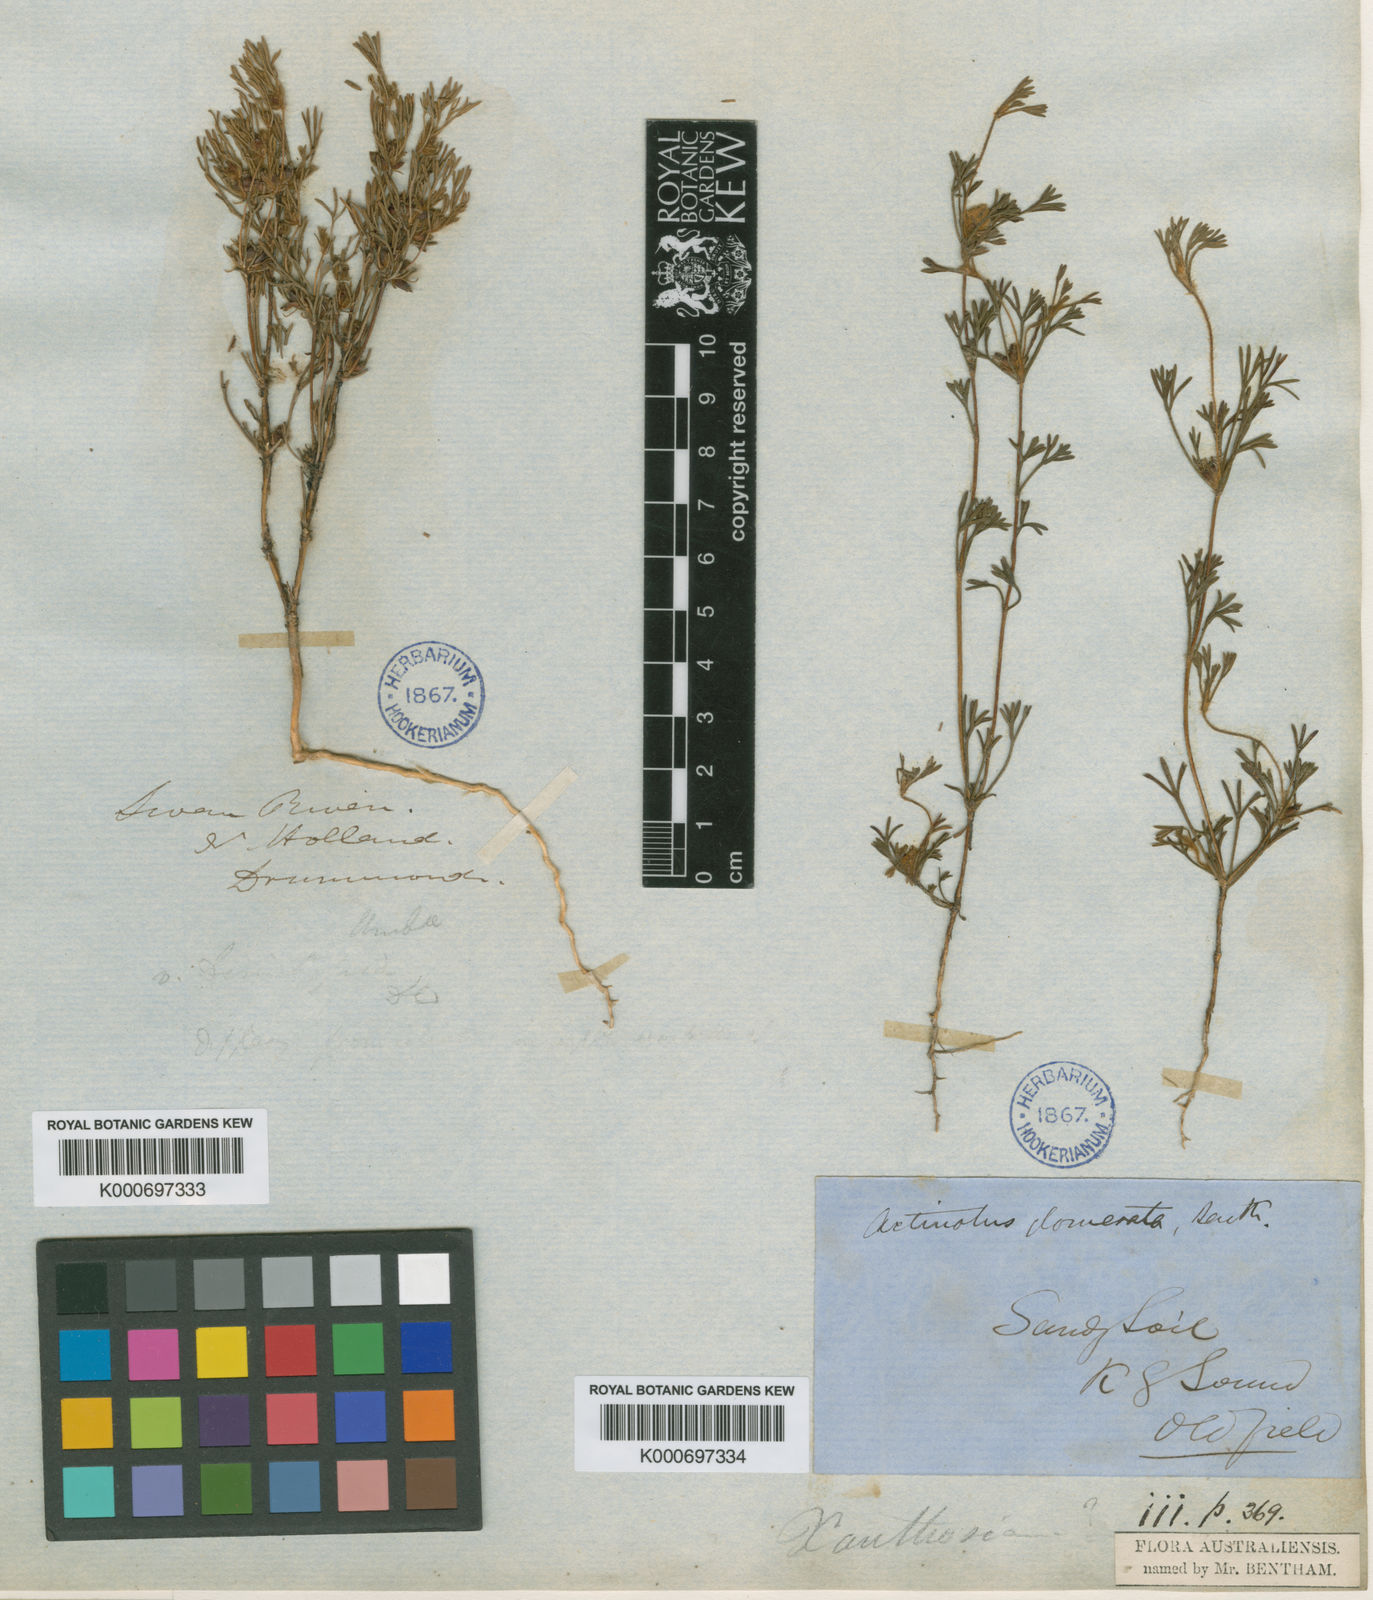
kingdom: Plantae
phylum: Tracheophyta
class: Magnoliopsida
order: Apiales
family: Apiaceae
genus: Actinotus
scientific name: Actinotus glomeratus
